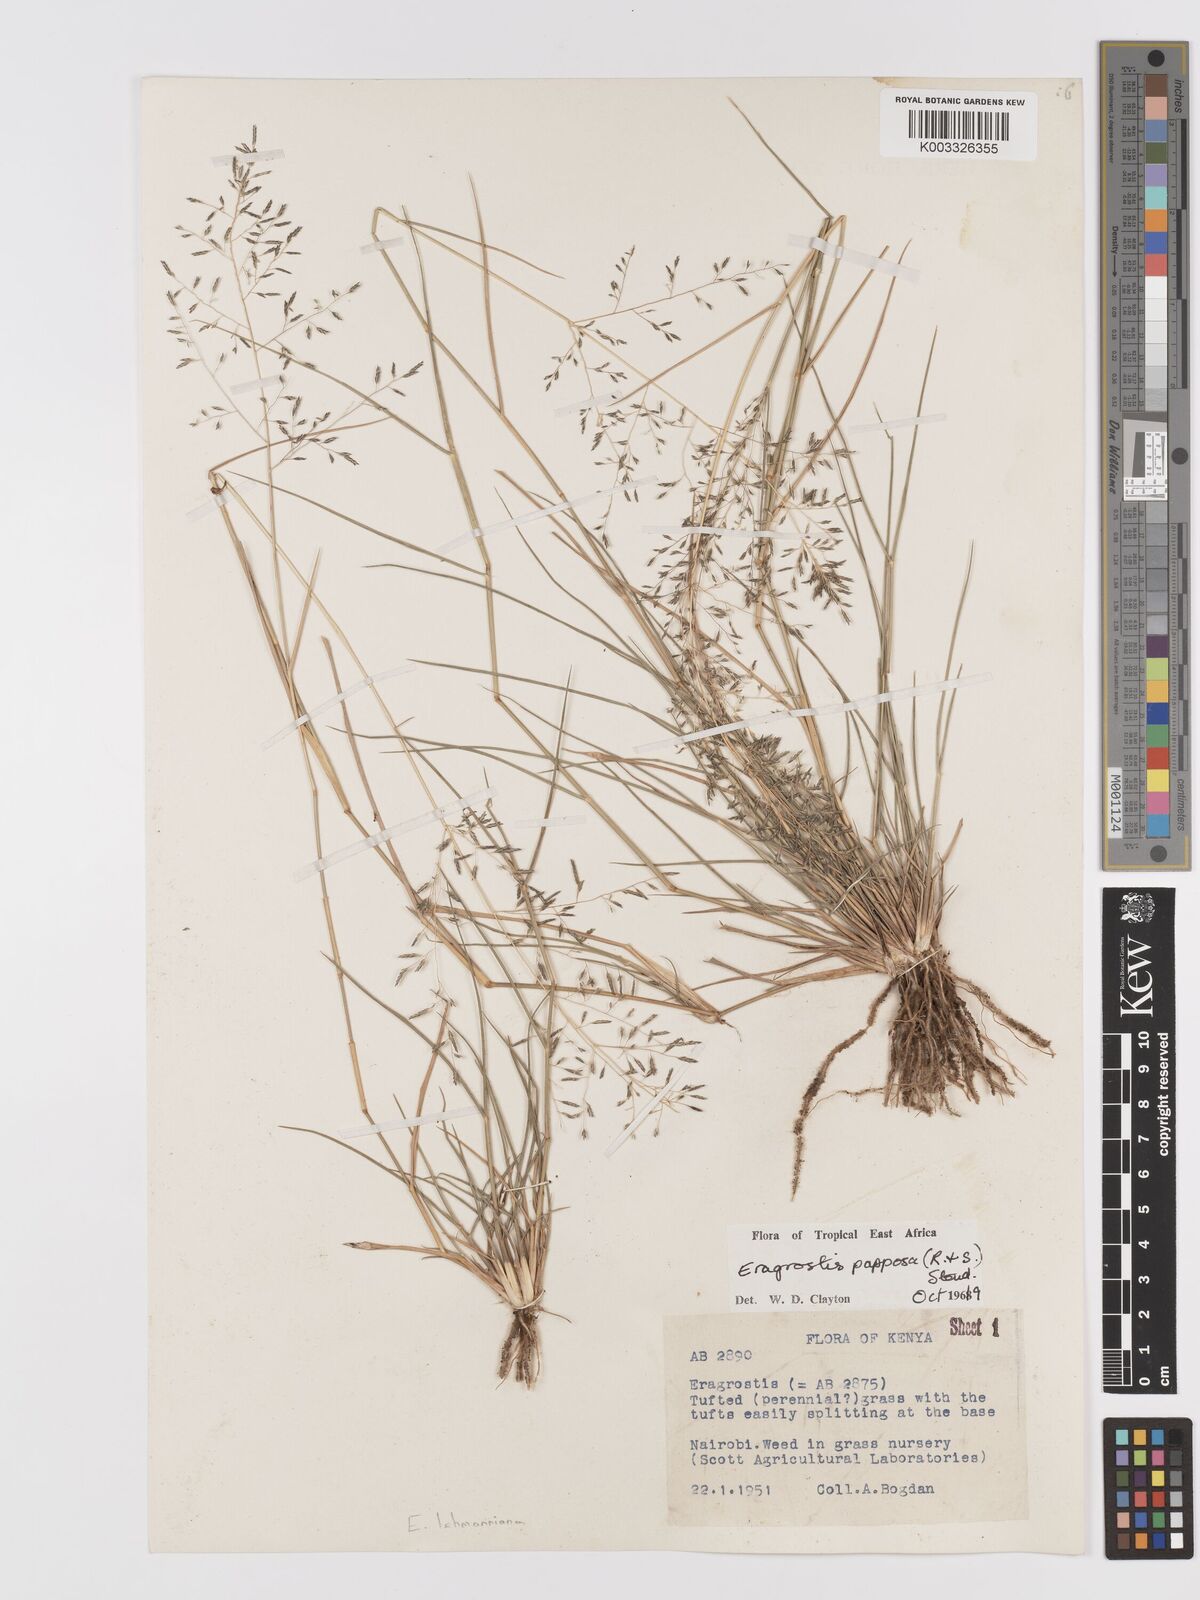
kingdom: Plantae
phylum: Tracheophyta
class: Liliopsida
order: Poales
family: Poaceae
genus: Eragrostis
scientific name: Eragrostis lehmanniana
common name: Lehmann lovegrass
